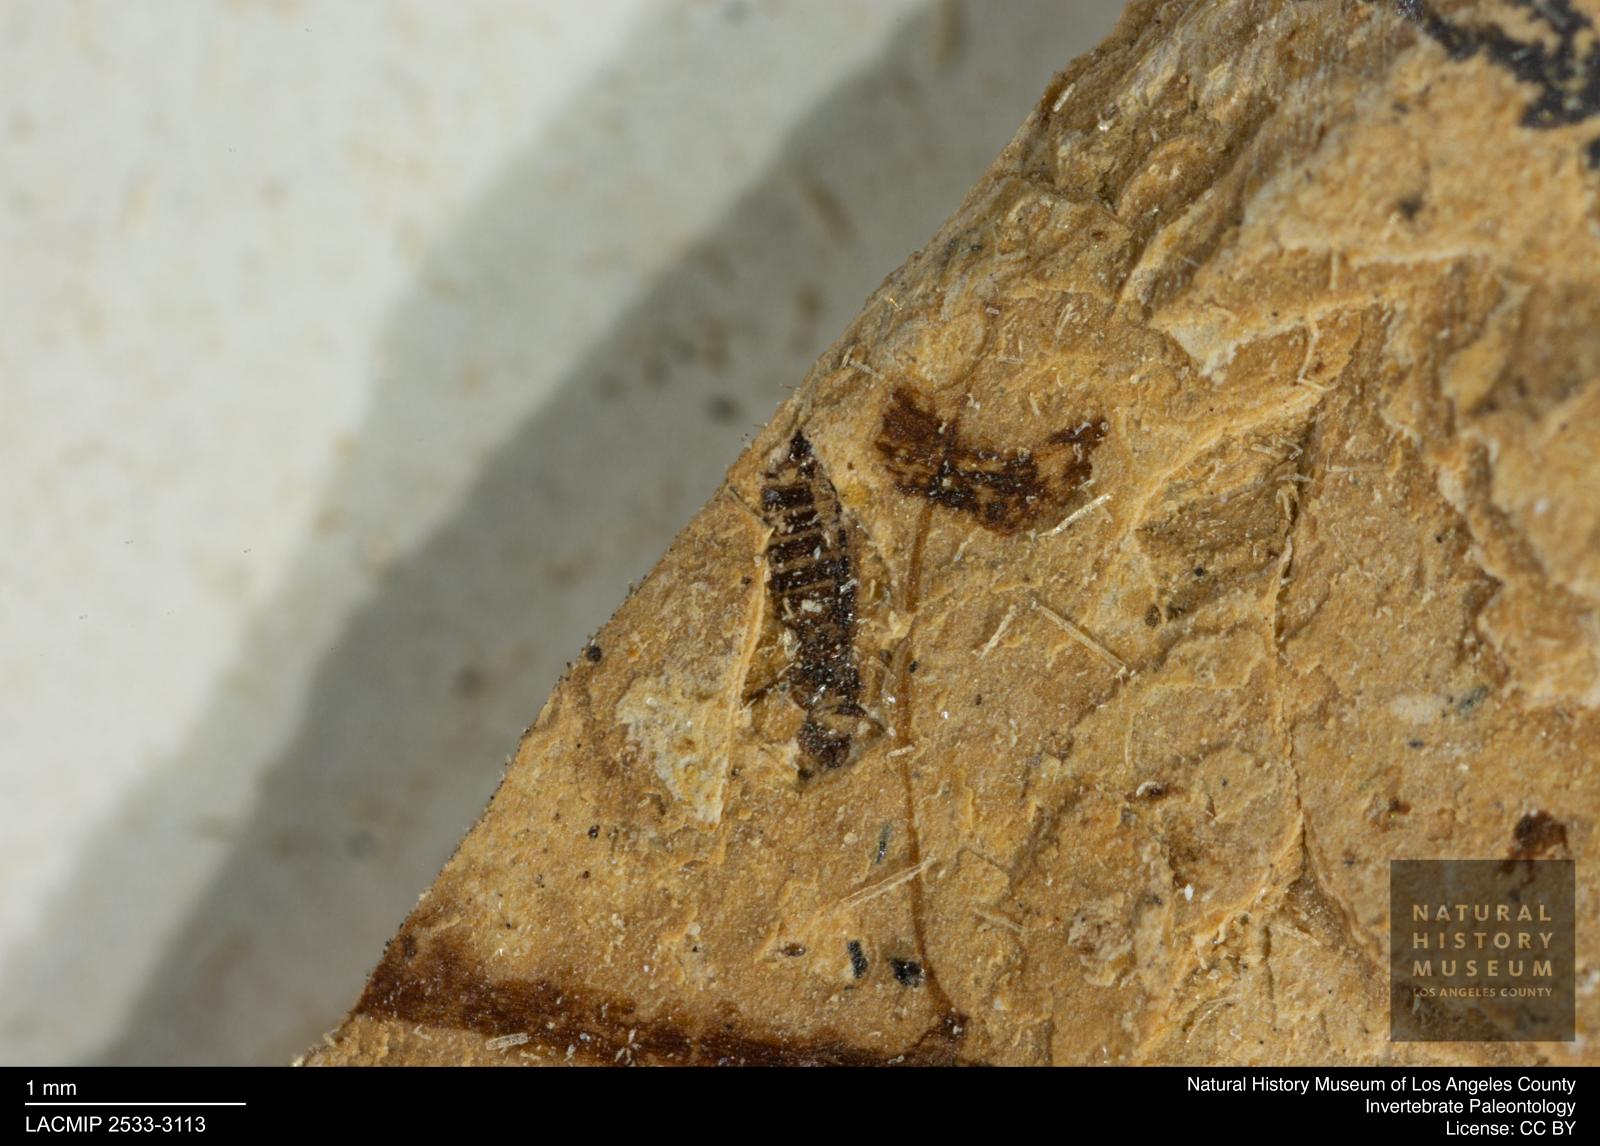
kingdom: Animalia
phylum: Arthropoda
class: Insecta
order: Thysanoptera
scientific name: Thysanoptera
